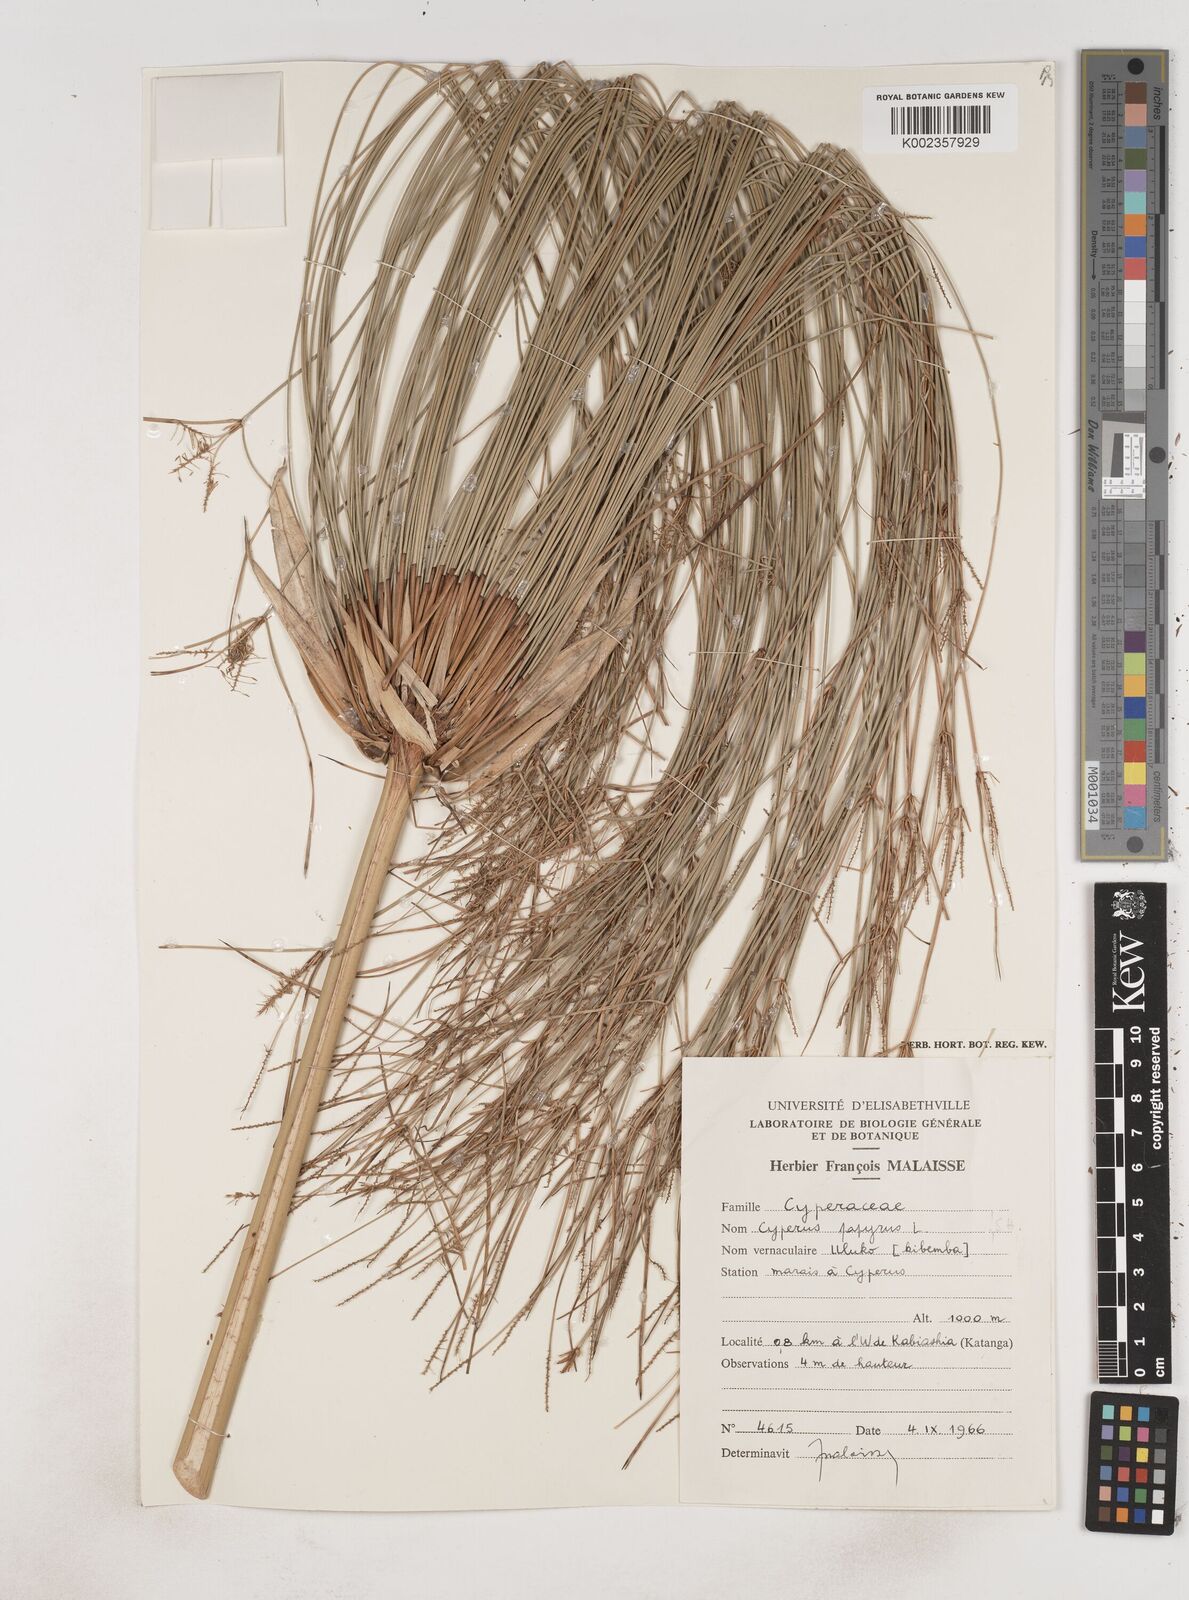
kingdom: Plantae
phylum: Tracheophyta
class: Liliopsida
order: Poales
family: Cyperaceae
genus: Cyperus
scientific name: Cyperus papyrus
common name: Papyrus
